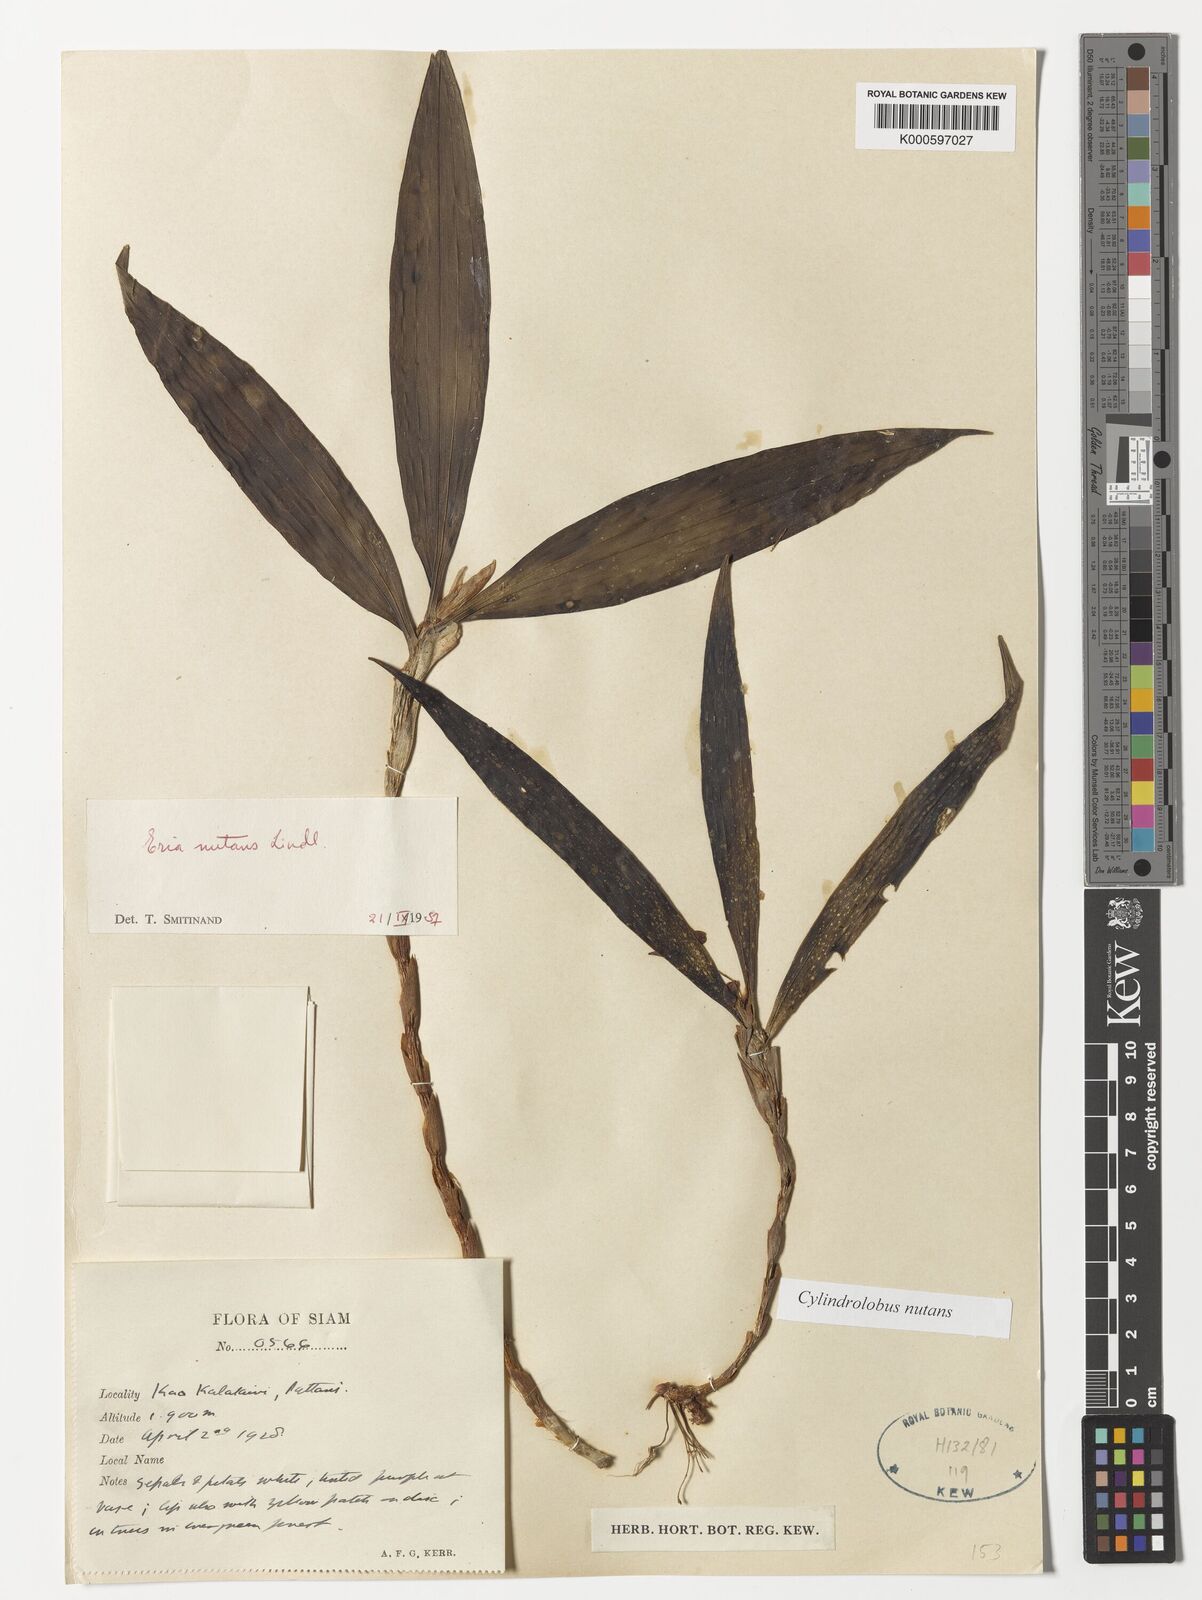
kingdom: Plantae
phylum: Tracheophyta
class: Liliopsida
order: Asparagales
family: Orchidaceae
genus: Cylindrolobus
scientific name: Cylindrolobus nutans
